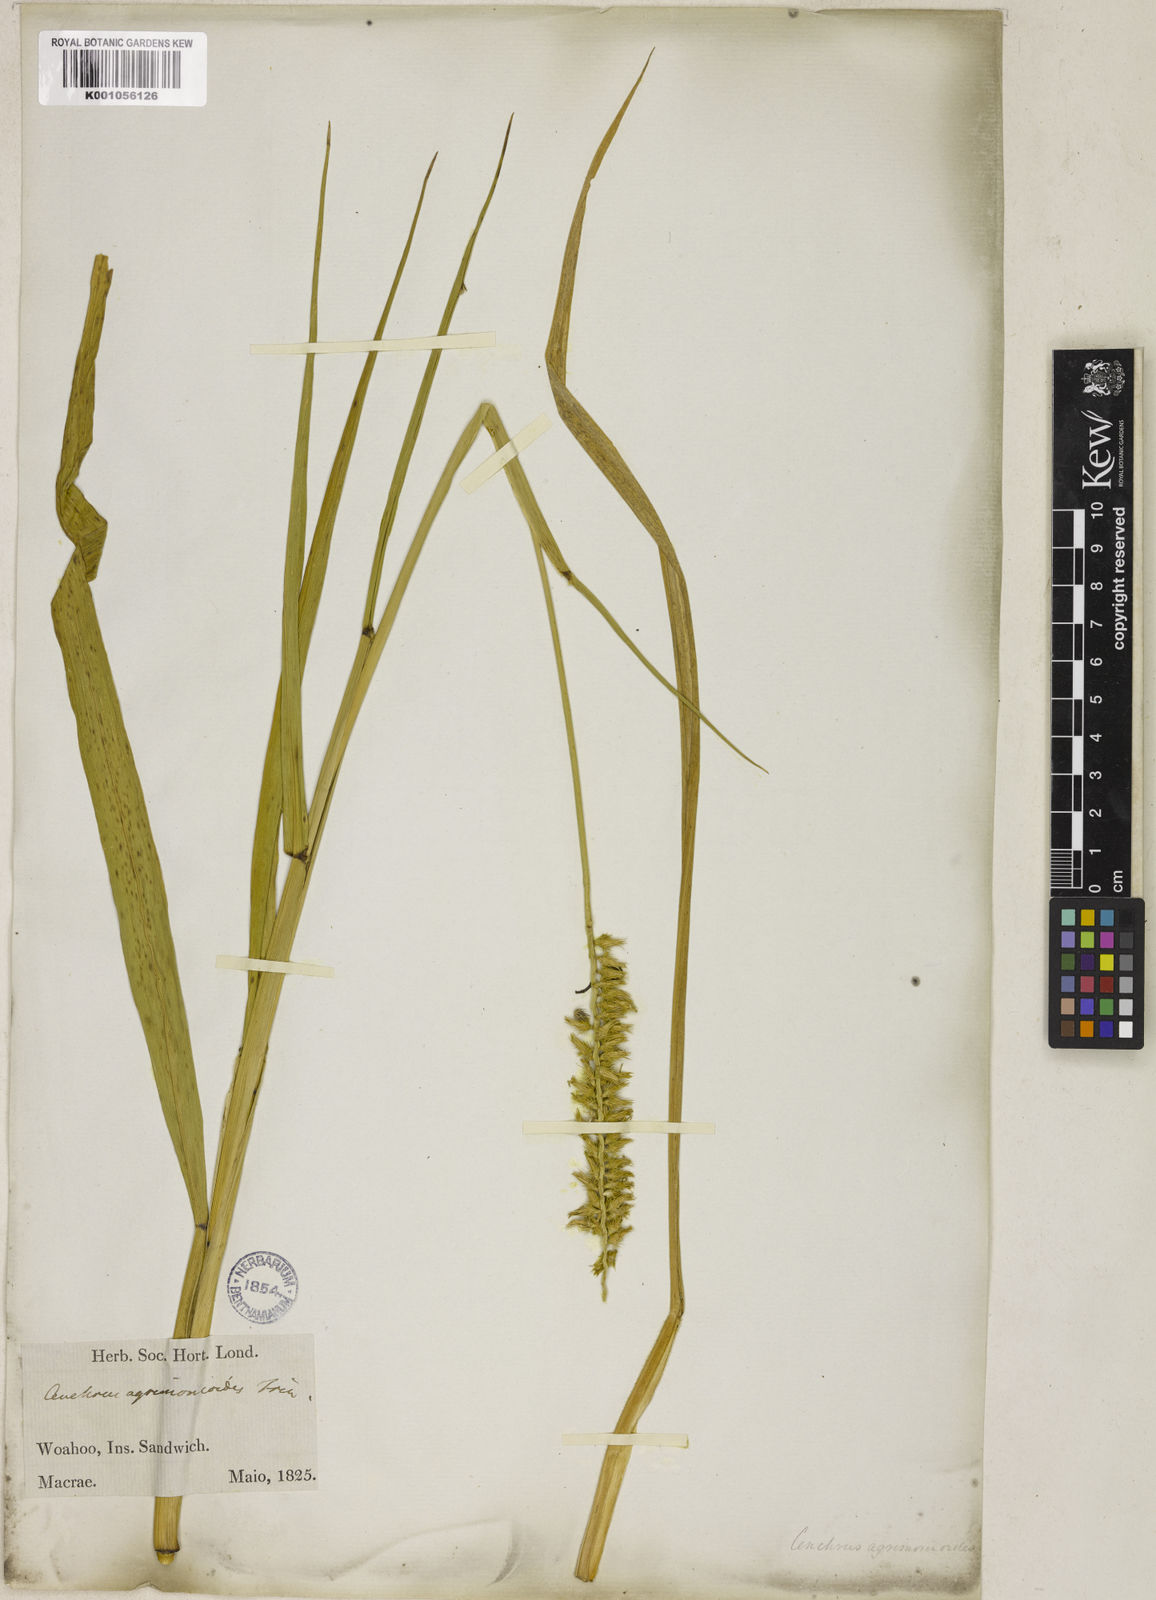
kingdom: Plantae
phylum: Tracheophyta
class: Liliopsida
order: Poales
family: Poaceae
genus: Cenchrus
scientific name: Cenchrus agrimonioides
